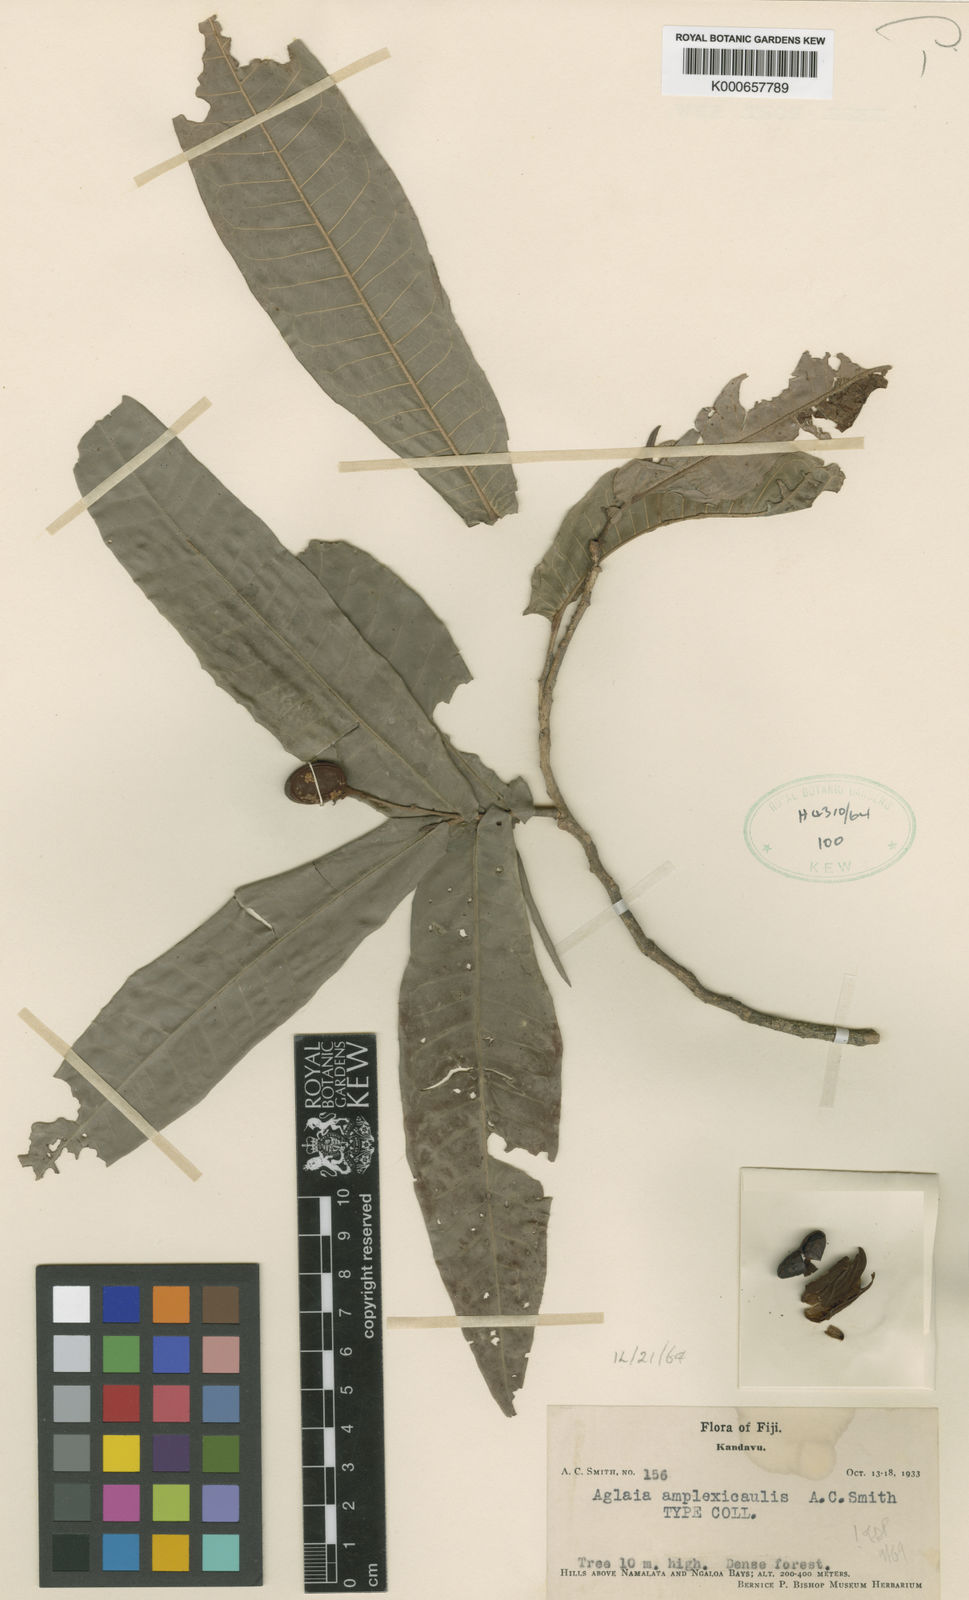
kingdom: Plantae
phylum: Tracheophyta
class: Magnoliopsida
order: Sapindales
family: Meliaceae
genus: Aglaia
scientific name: Aglaia amplexicaulis
